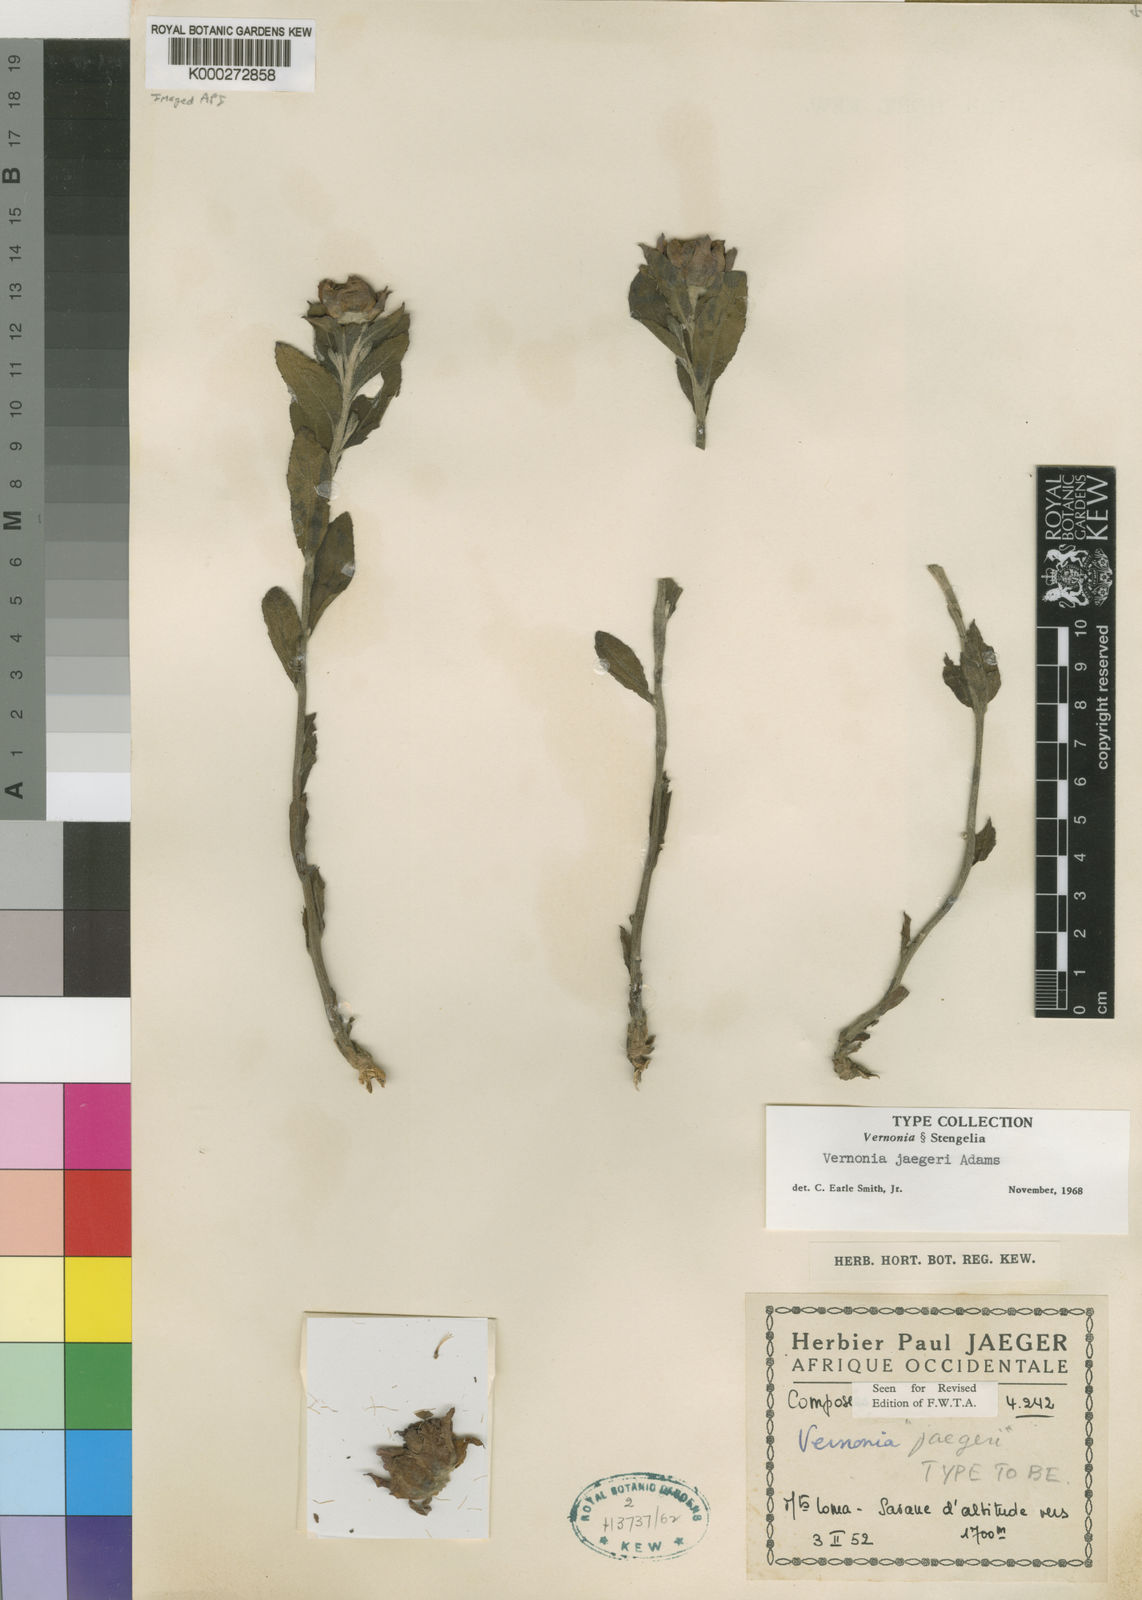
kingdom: Plantae
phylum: Tracheophyta
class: Magnoliopsida
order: Asterales
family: Asteraceae
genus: Vernonia
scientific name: Vernonia jaegeri
